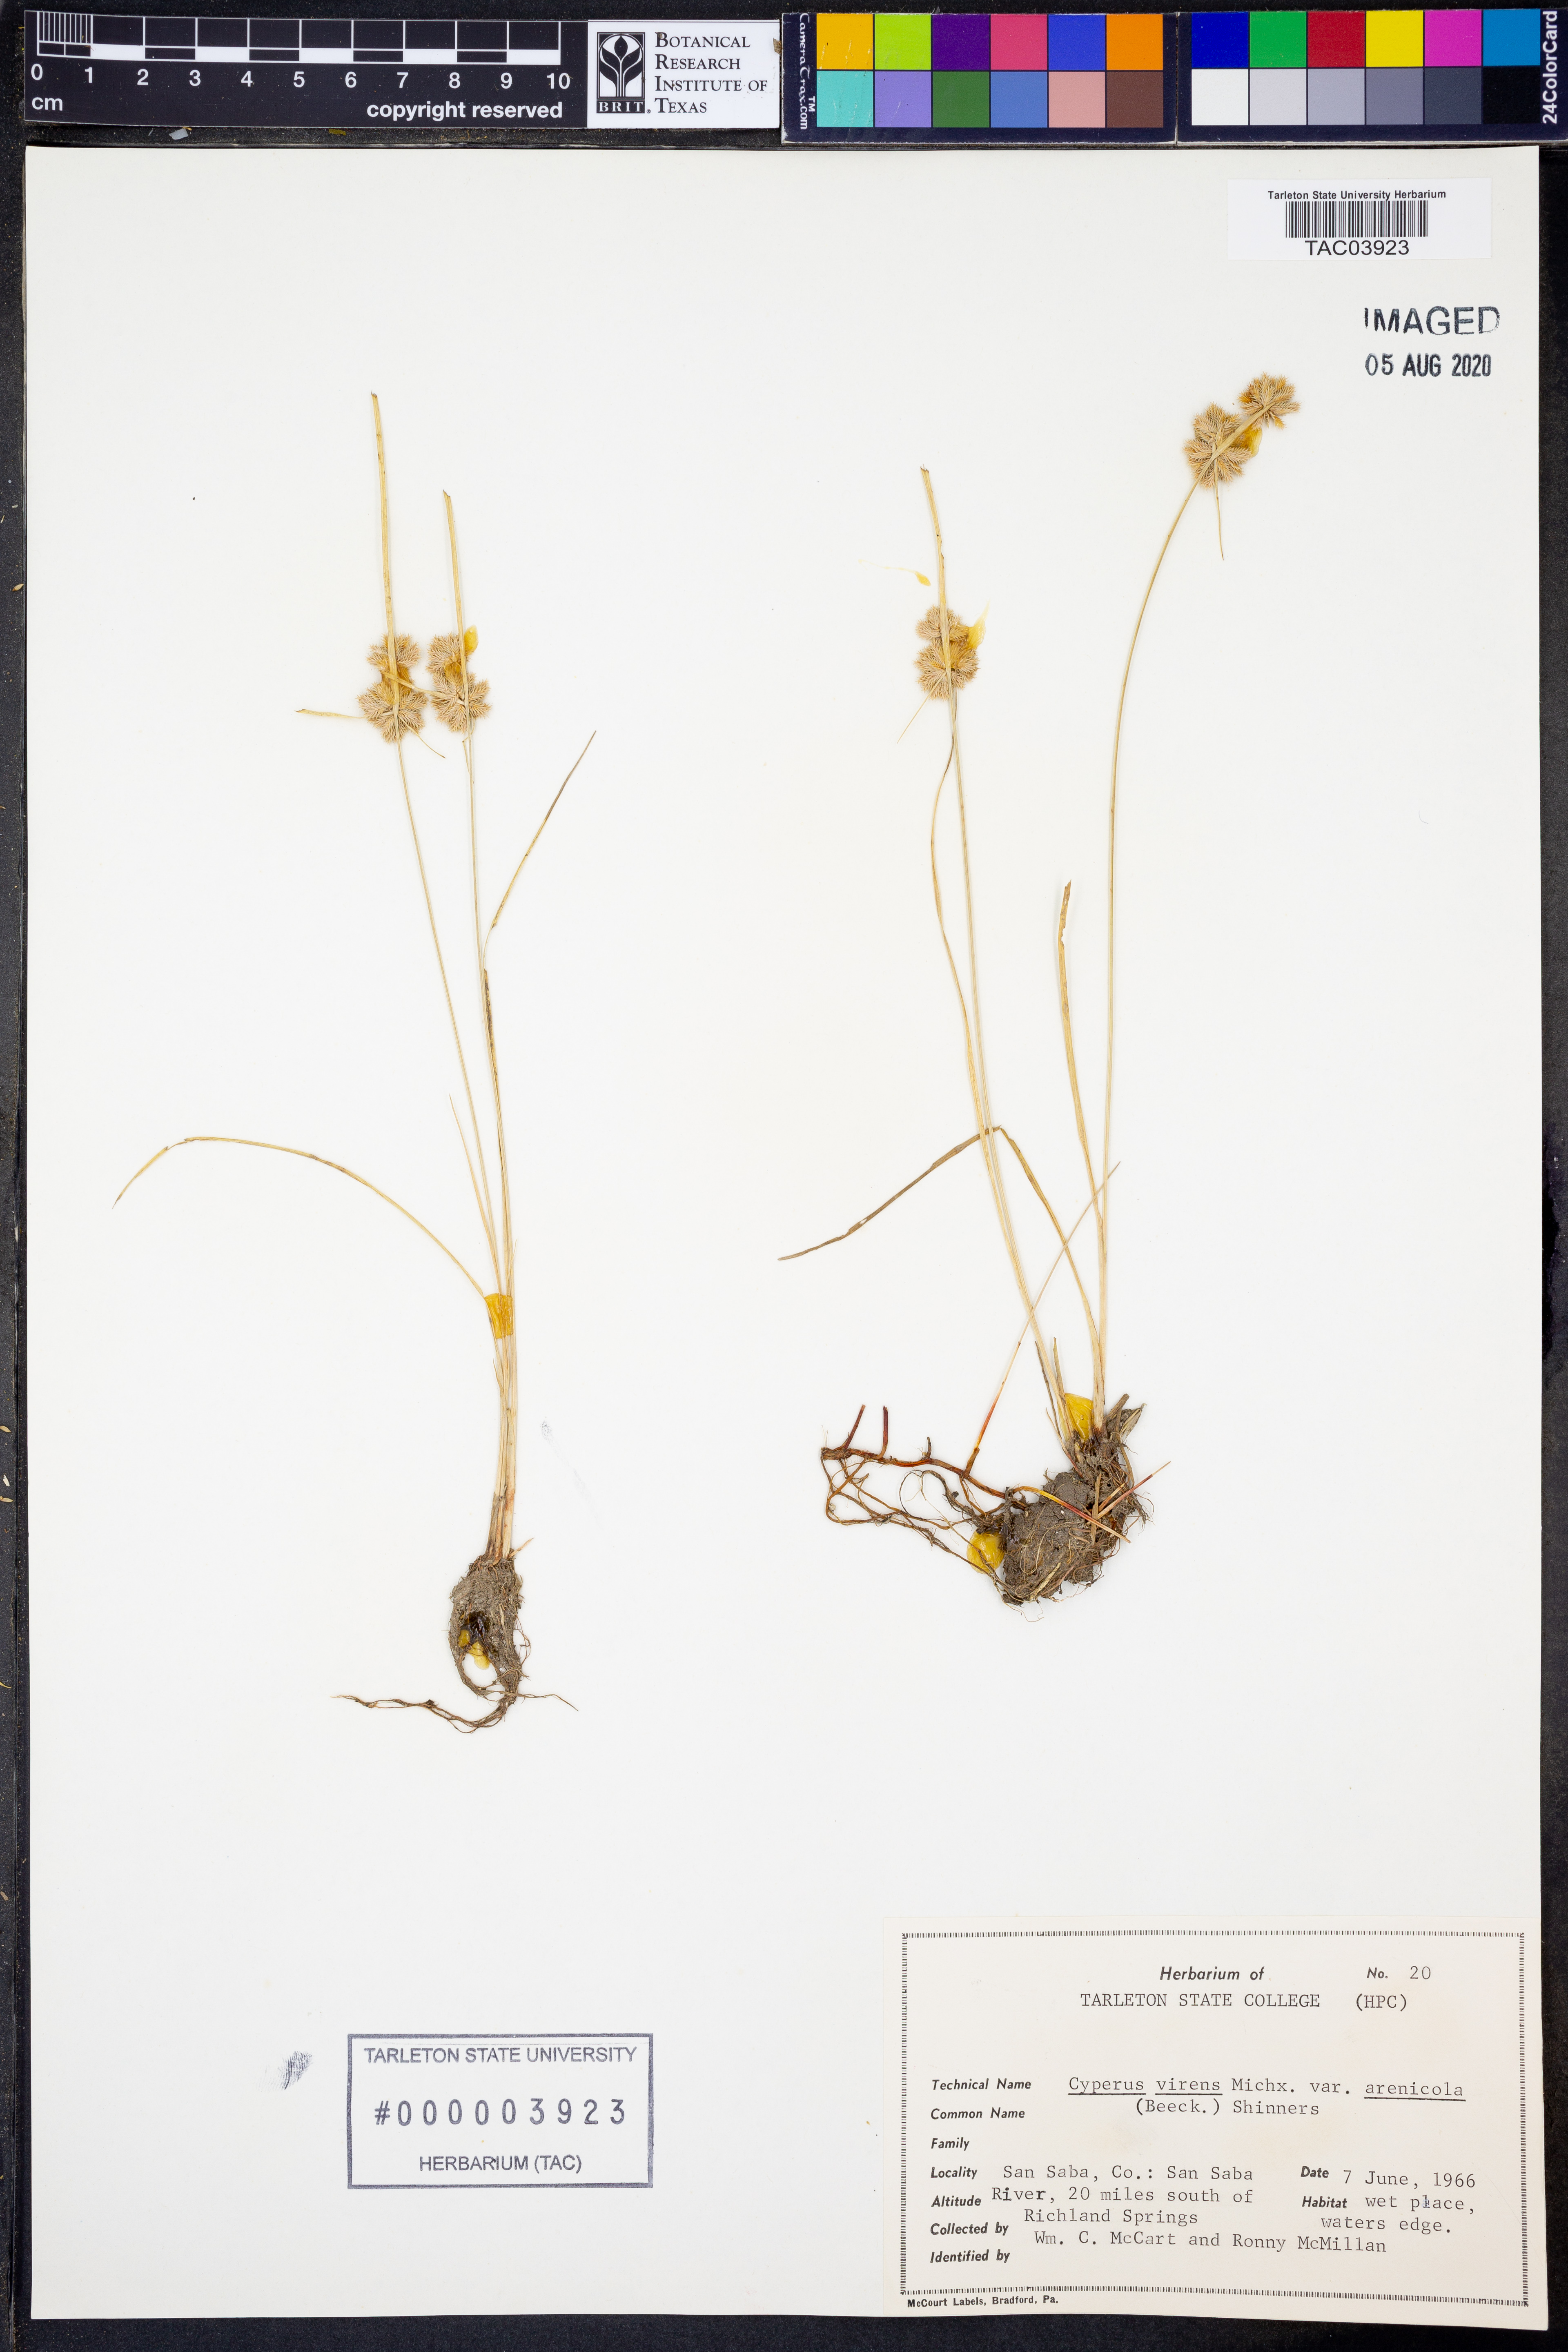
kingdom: Plantae
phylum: Tracheophyta
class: Liliopsida
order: Poales
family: Cyperaceae
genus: Cyperus
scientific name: Cyperus reflexus
